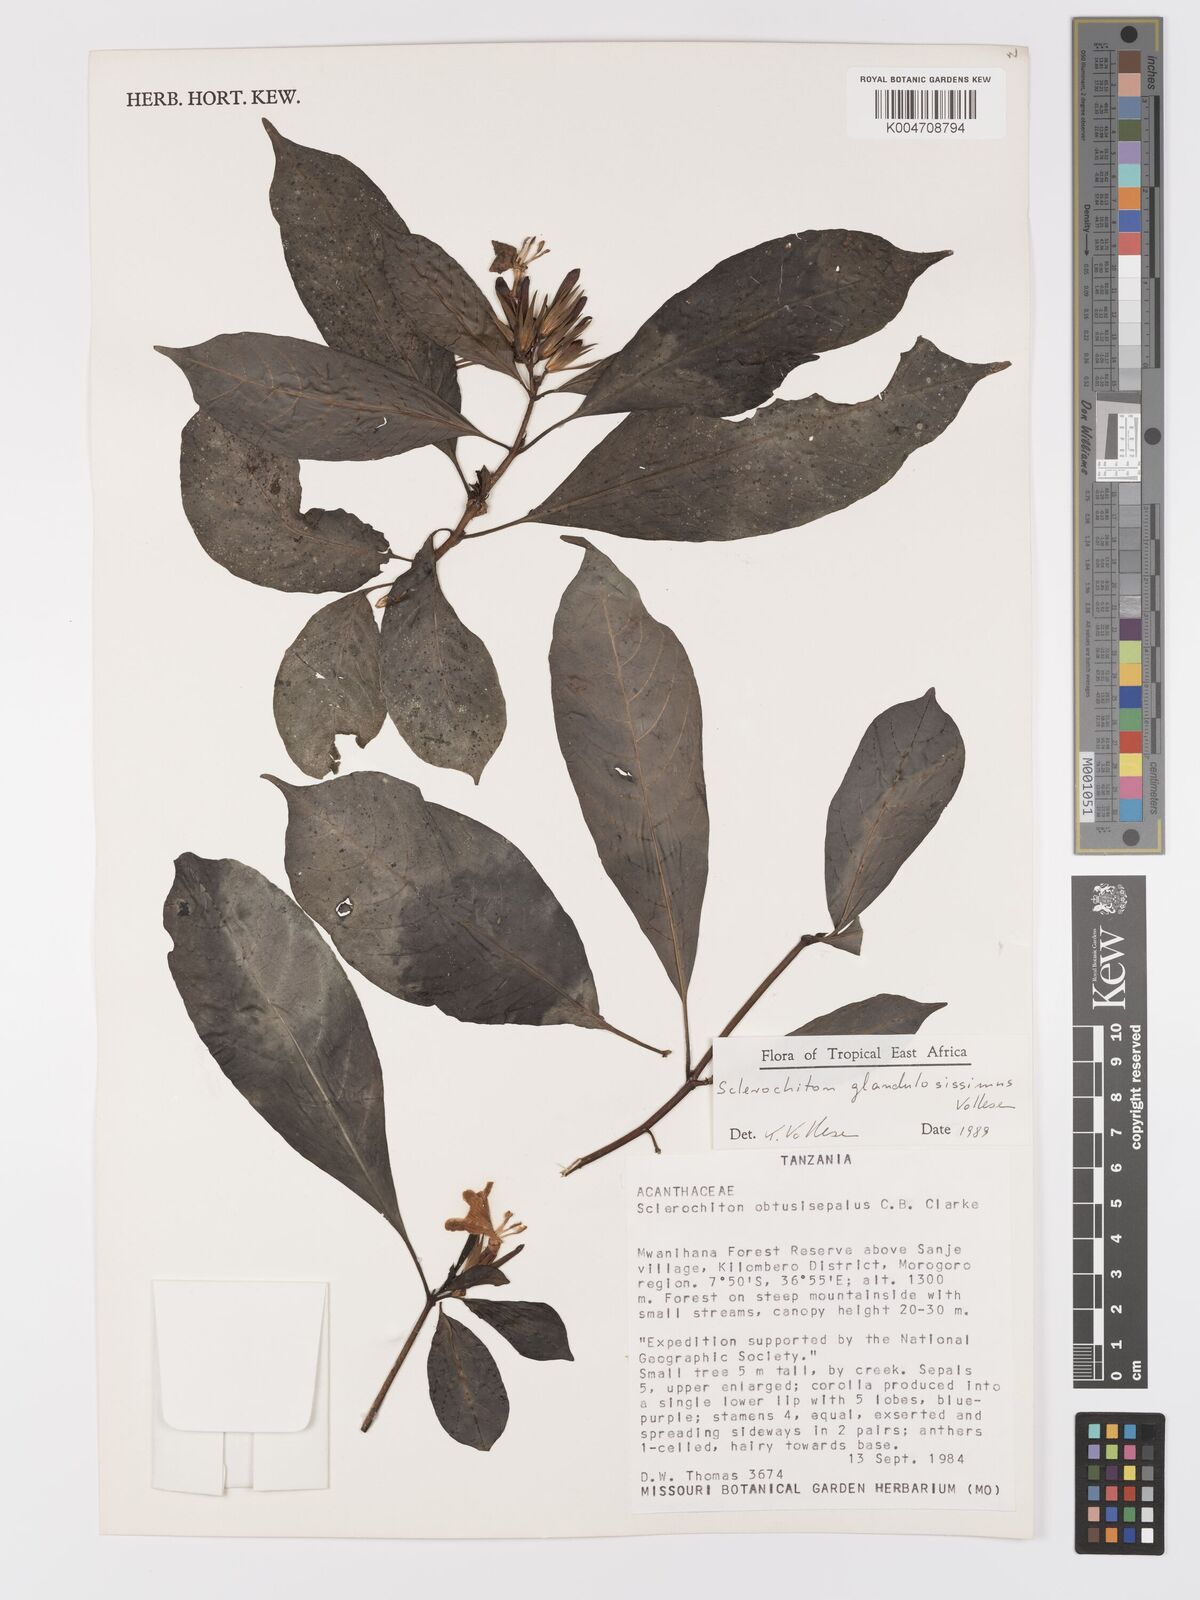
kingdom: Plantae
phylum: Tracheophyta
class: Magnoliopsida
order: Lamiales
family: Acanthaceae
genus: Sclerochiton
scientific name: Sclerochiton glandulosissimus
